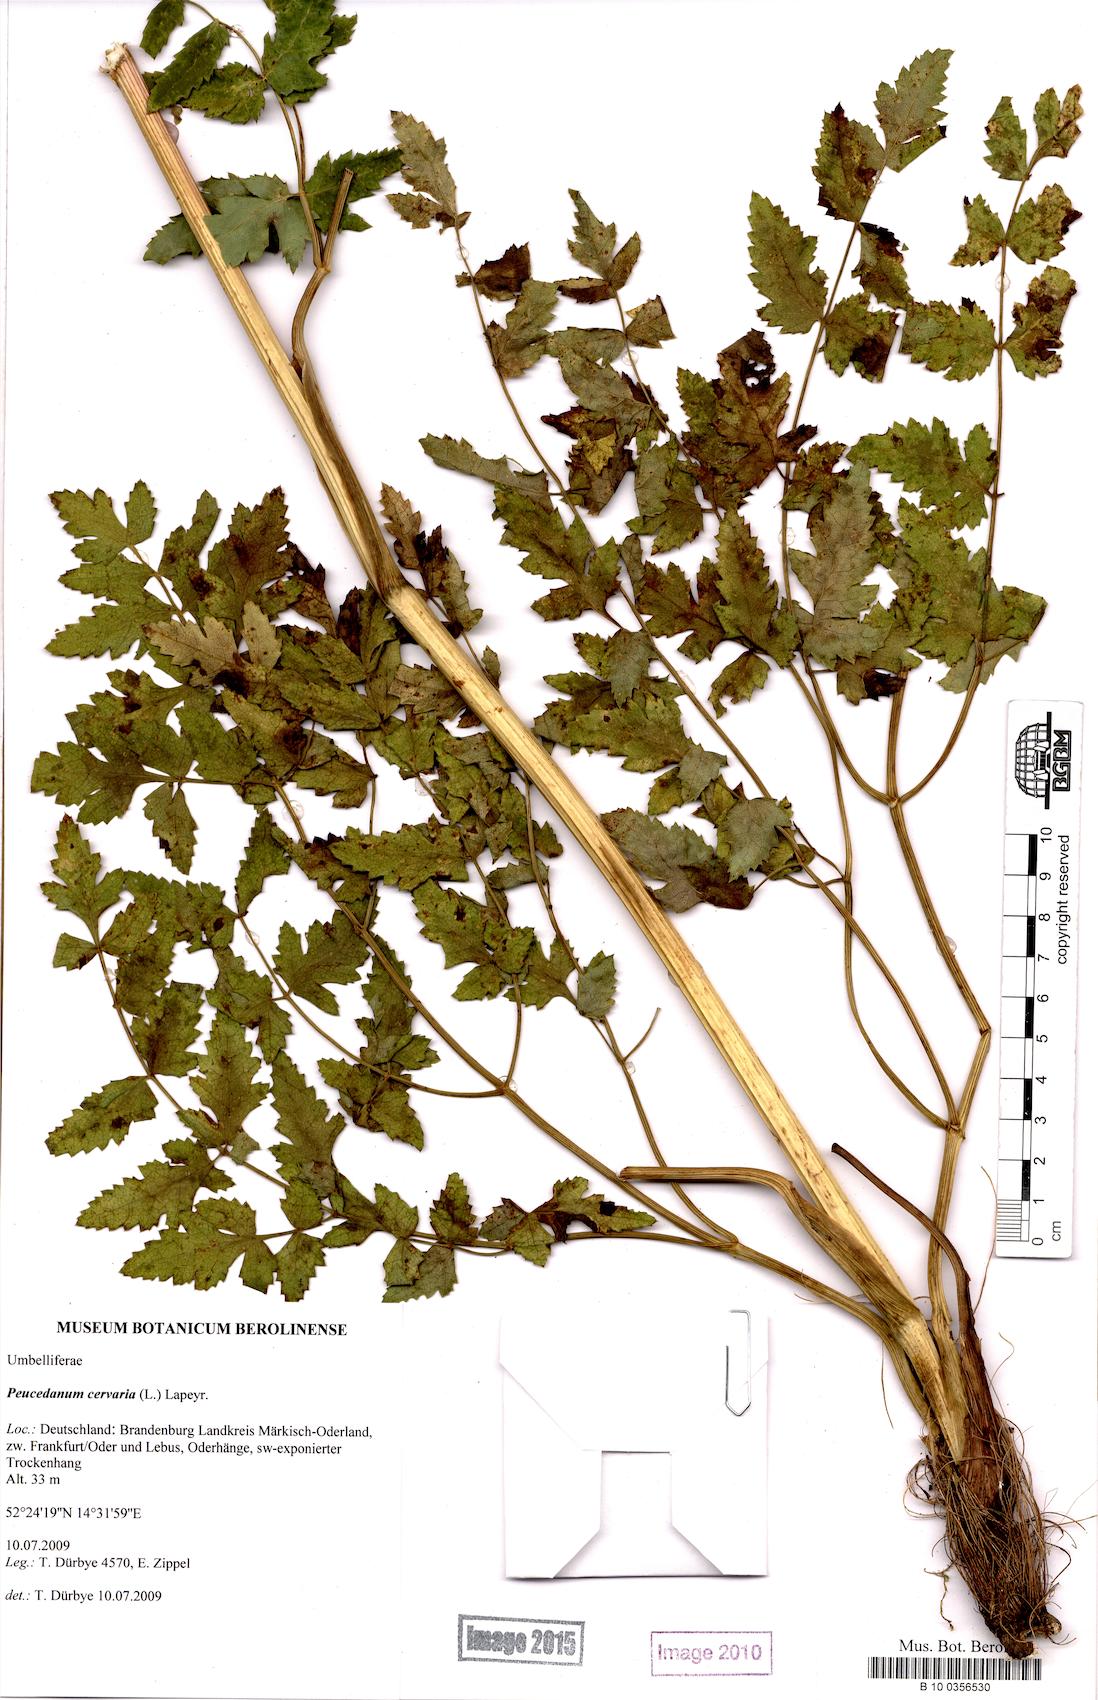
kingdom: Plantae
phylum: Tracheophyta
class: Magnoliopsida
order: Apiales
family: Apiaceae
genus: Cervaria
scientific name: Cervaria rivini
